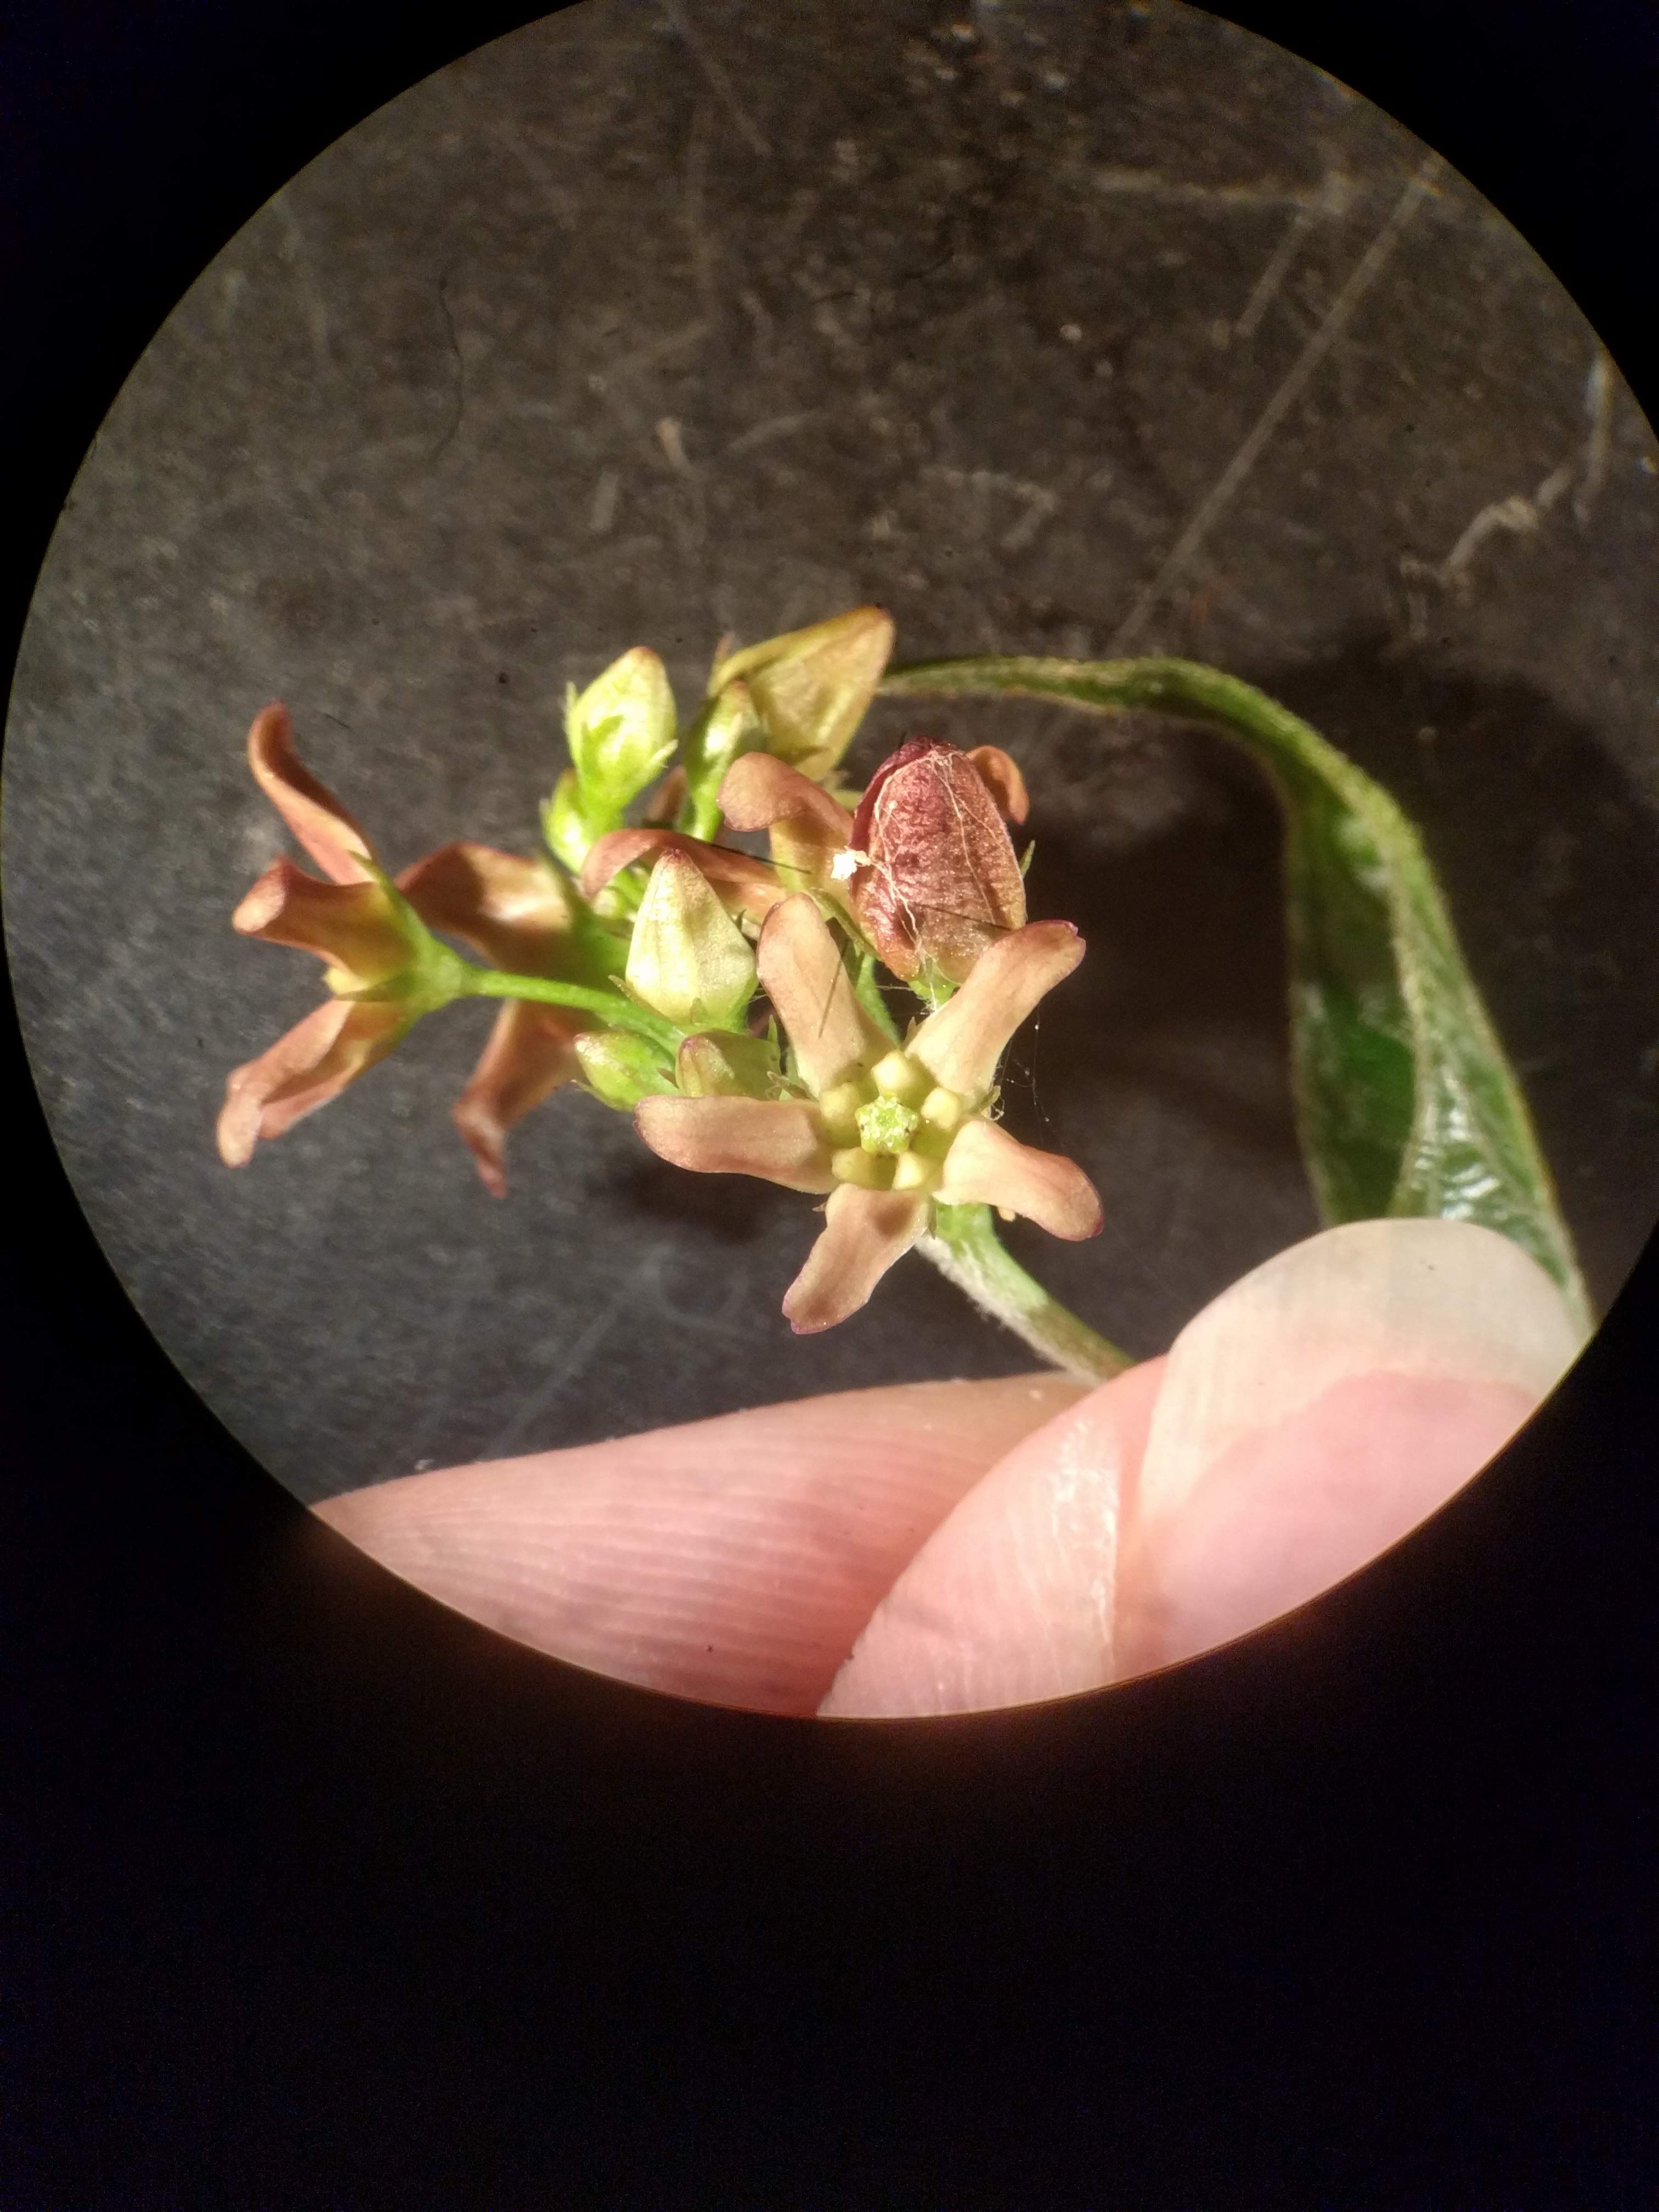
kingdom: Plantae
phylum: Tracheophyta
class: Magnoliopsida
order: Gentianales
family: Apocynaceae
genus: Vincetoxicum
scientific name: Vincetoxicum rossicum
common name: Dog-strangling vine
